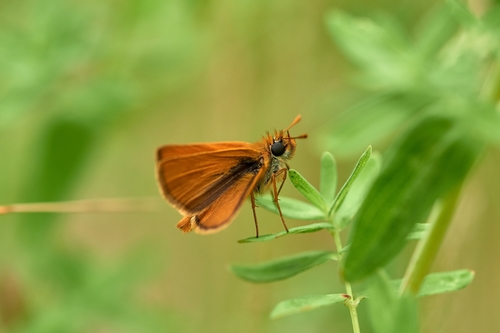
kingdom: Animalia
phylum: Arthropoda
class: Insecta
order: Lepidoptera
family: Hesperiidae
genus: Thymelicus
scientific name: Thymelicus acteon
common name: Lulworth skipper
